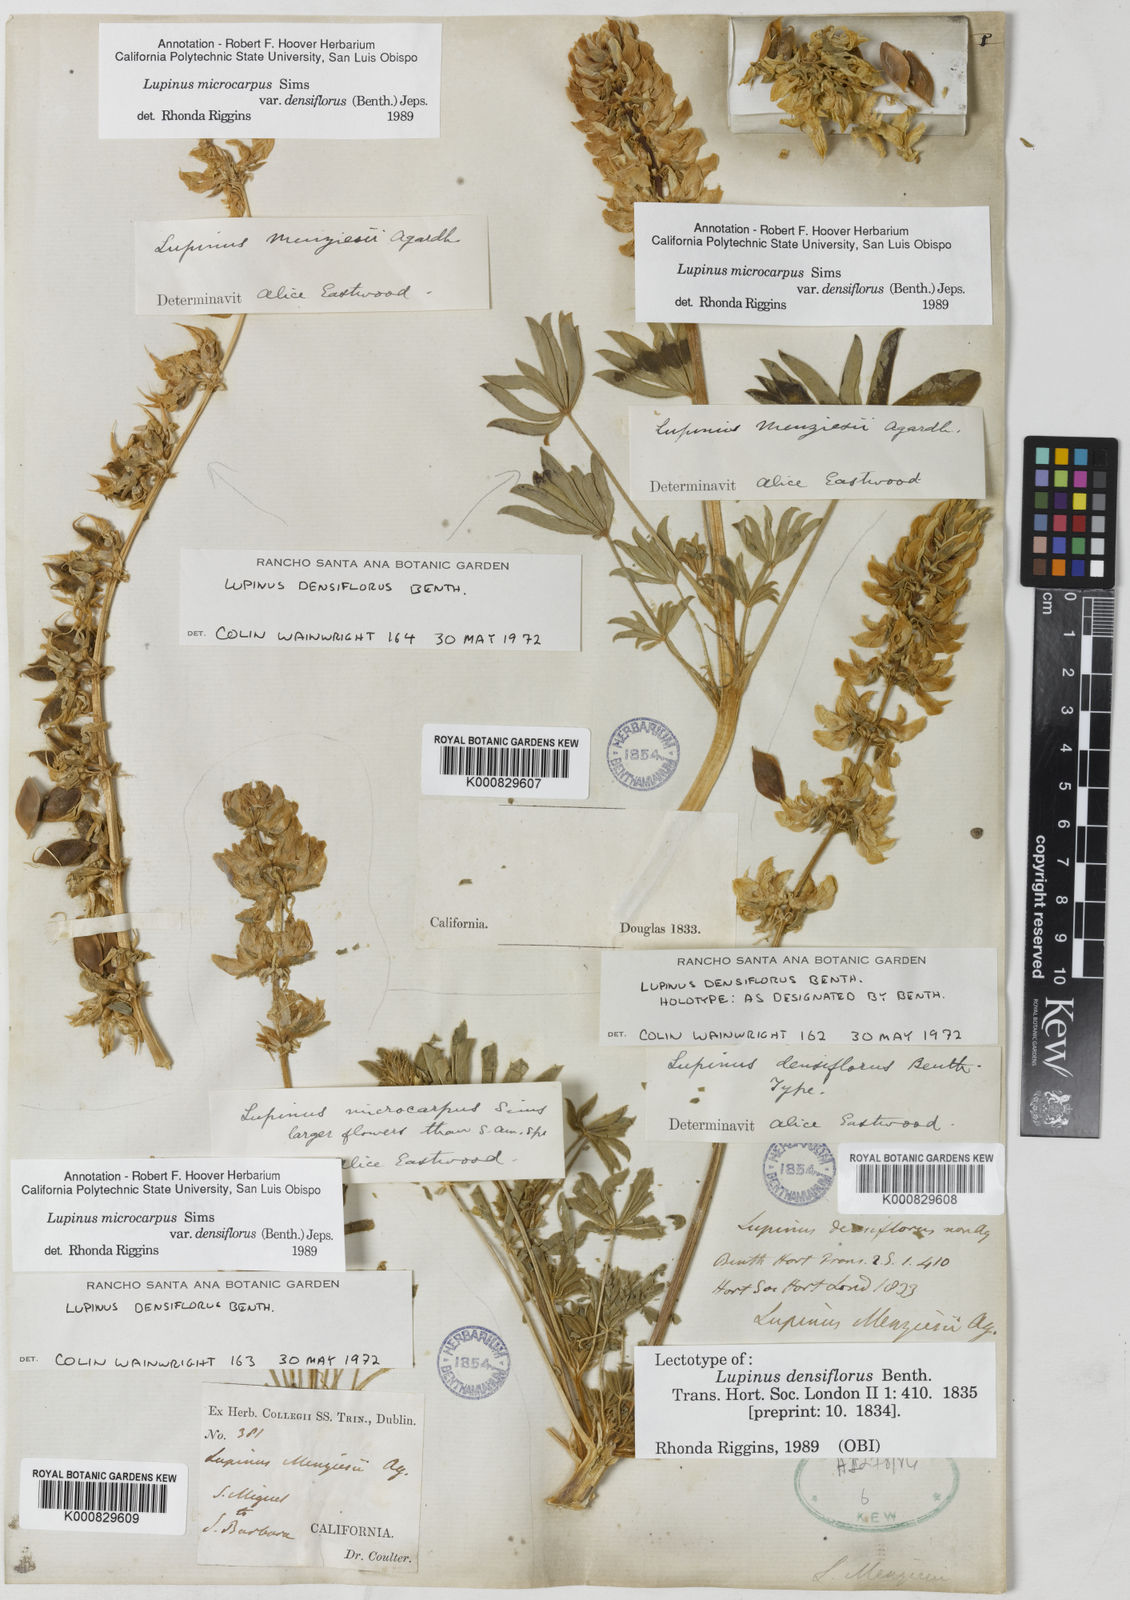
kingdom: Plantae
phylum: Tracheophyta
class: Magnoliopsida
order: Fabales
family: Fabaceae
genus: Lupinus
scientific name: Lupinus densiflorus
